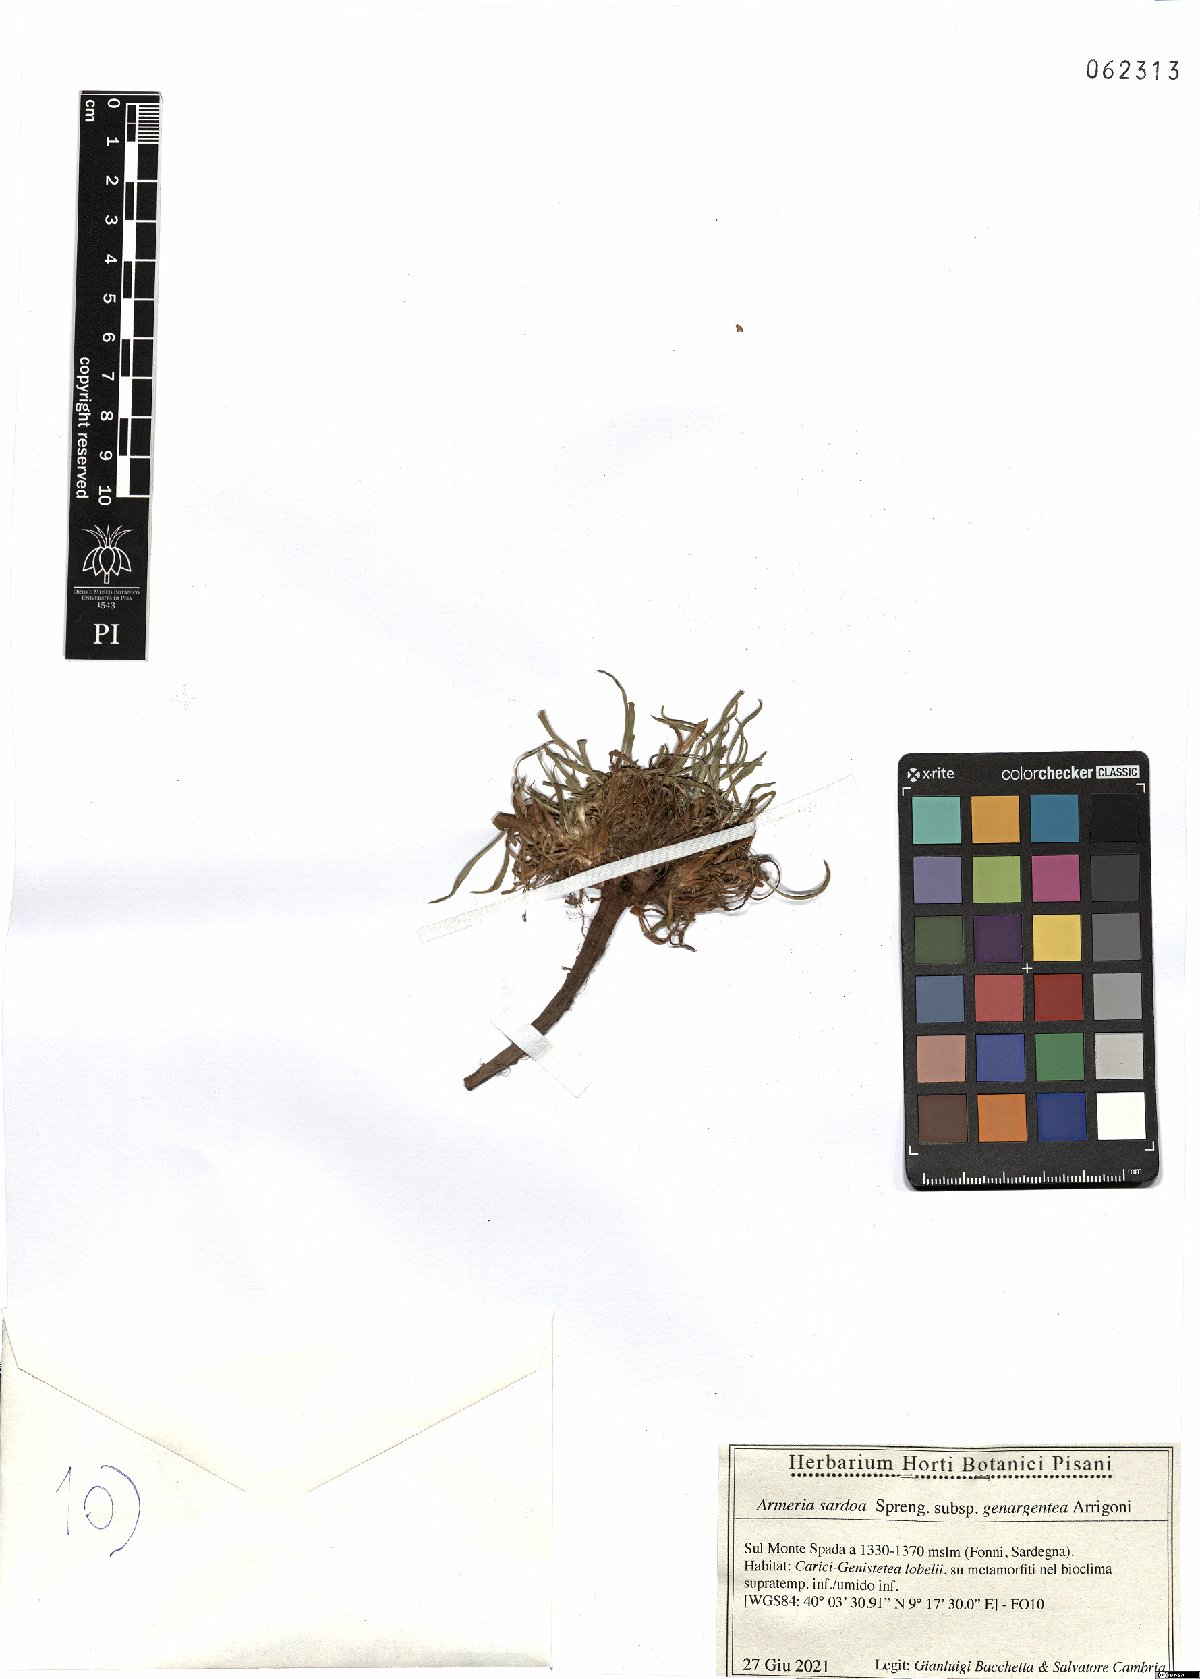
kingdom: Plantae
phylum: Tracheophyta
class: Magnoliopsida
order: Caryophyllales
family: Plumbaginaceae
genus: Armeria
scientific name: Armeria sardoa
